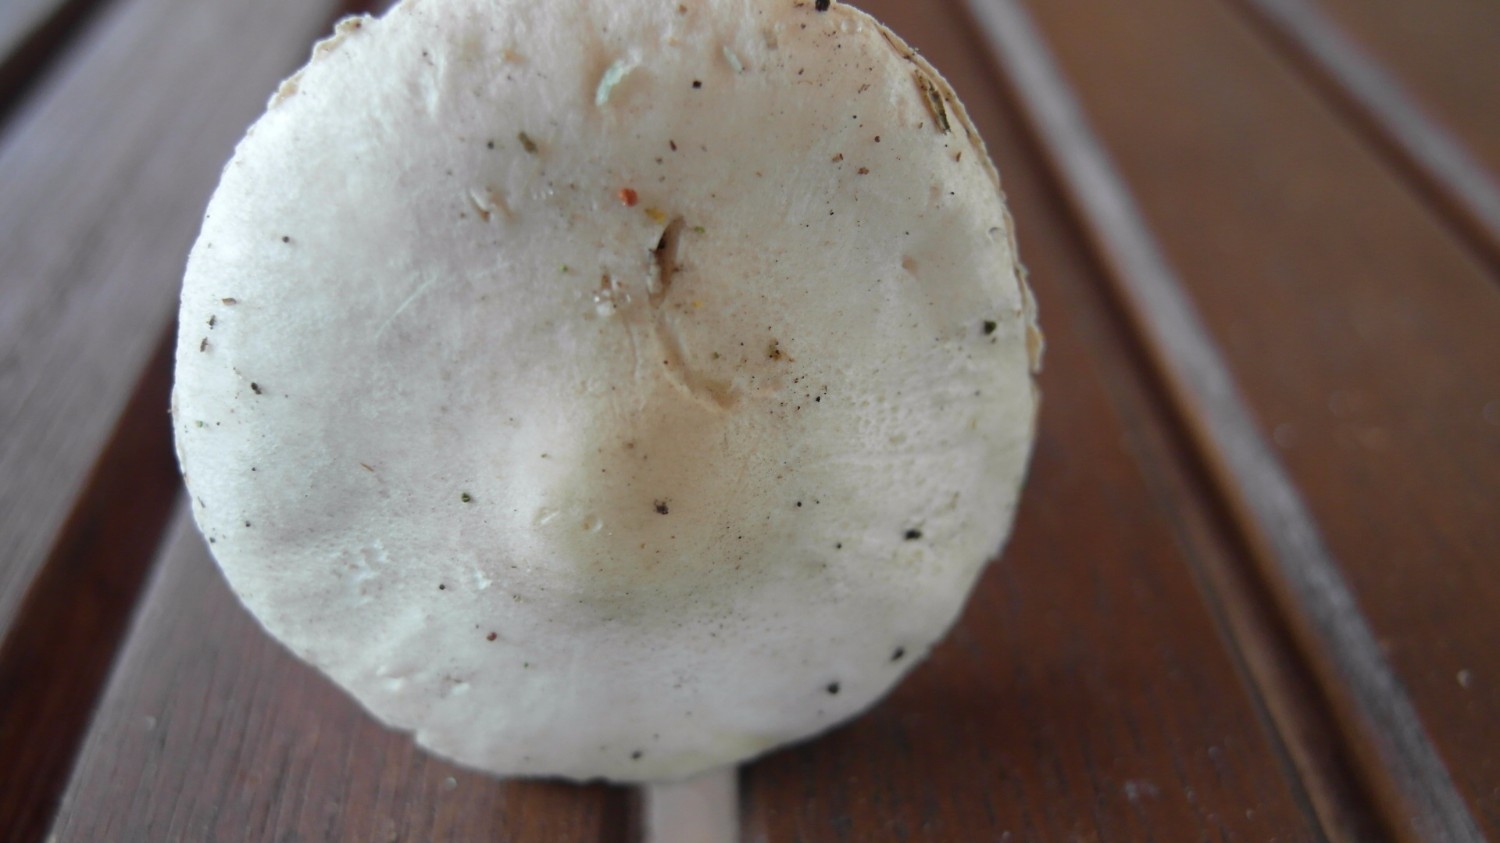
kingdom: Fungi
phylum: Basidiomycota
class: Agaricomycetes
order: Agaricales
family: Agaricaceae
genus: Lepiota
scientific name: Lepiota erminea
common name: hvid parasolhat
